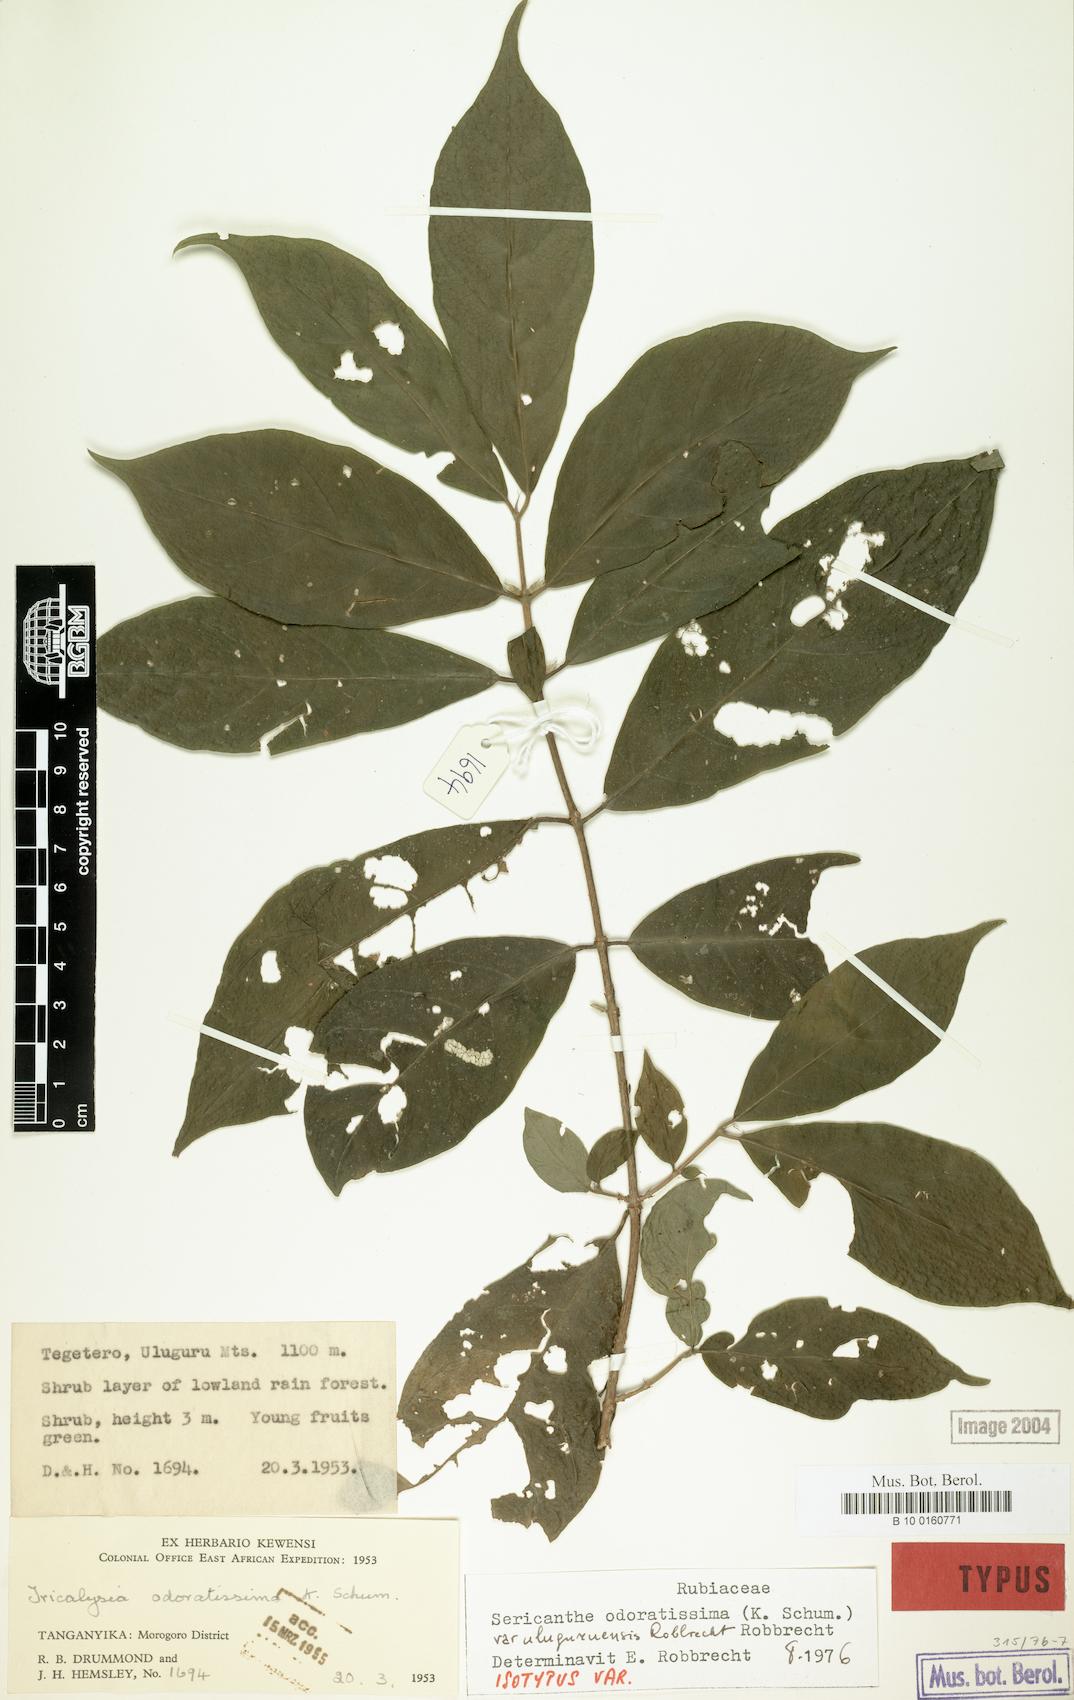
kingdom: Plantae
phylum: Tracheophyta
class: Magnoliopsida
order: Gentianales
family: Rubiaceae
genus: Sericanthe
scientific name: Sericanthe odoratissima
